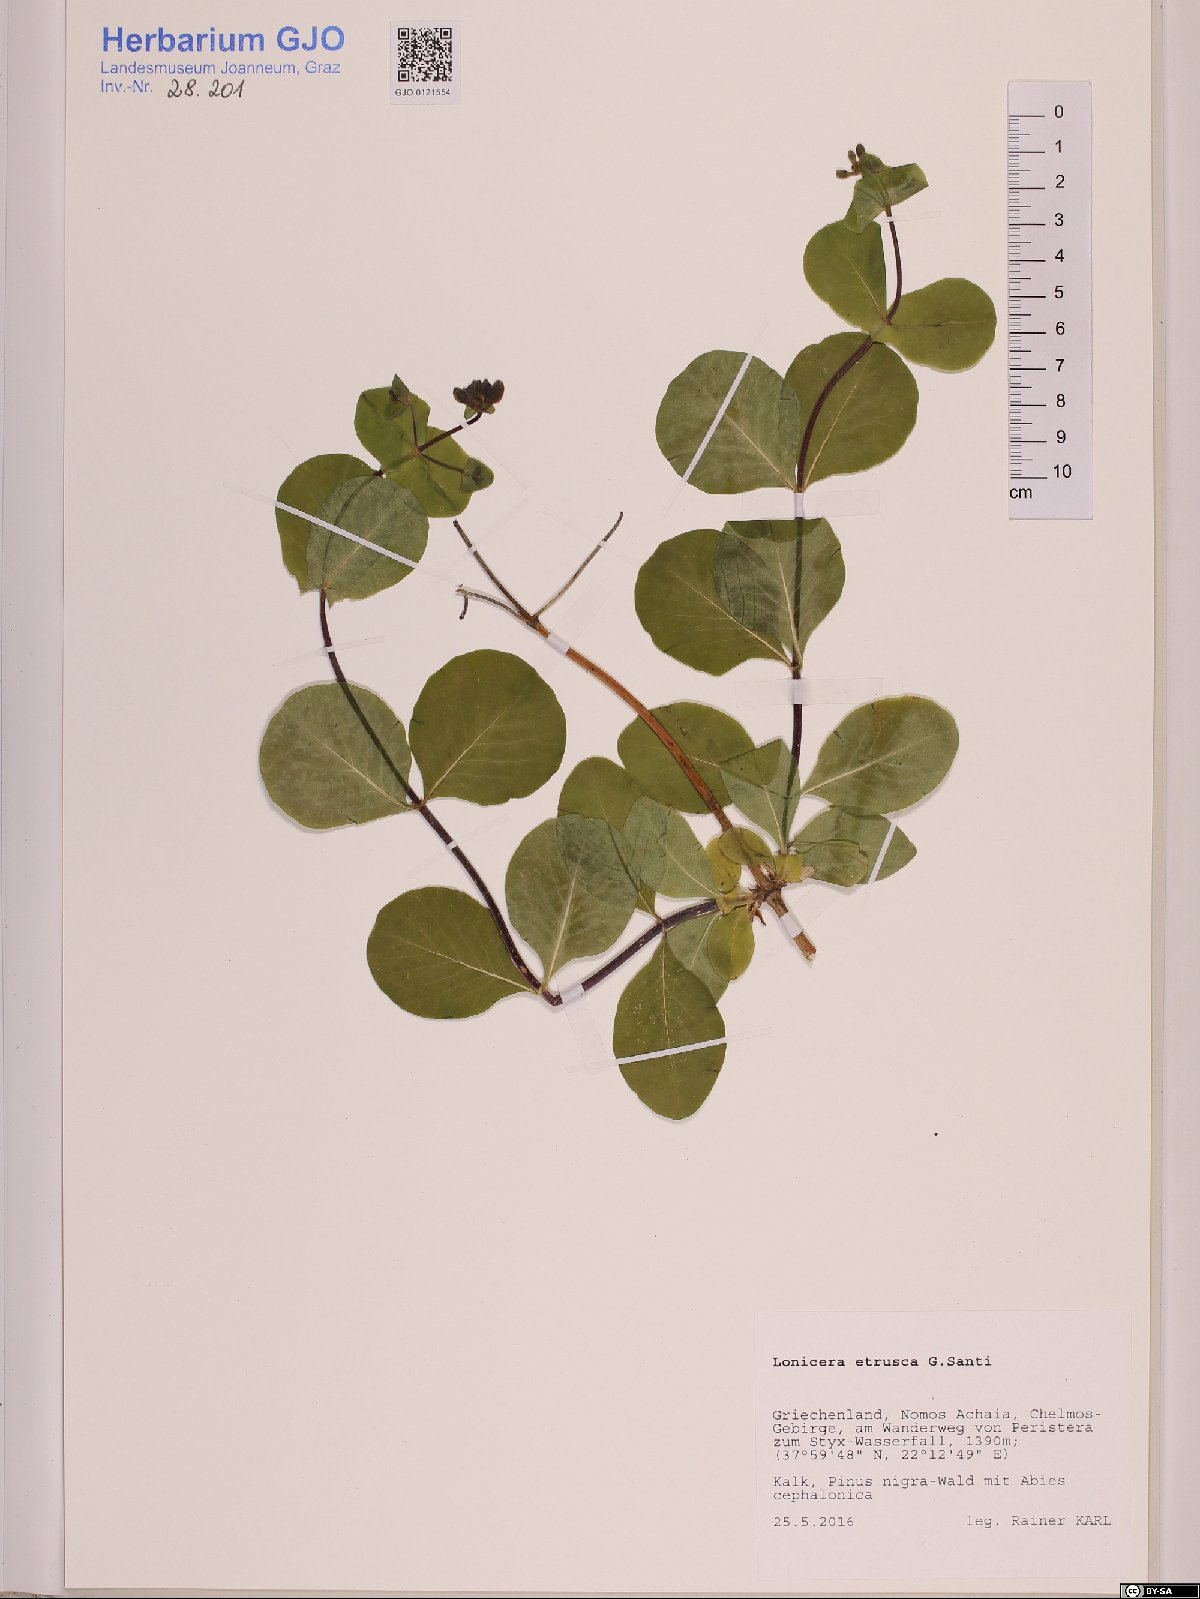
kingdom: Plantae
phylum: Tracheophyta
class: Magnoliopsida
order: Dipsacales
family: Caprifoliaceae
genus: Lonicera
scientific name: Lonicera etrusca
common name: Etruscan honeysuckle
